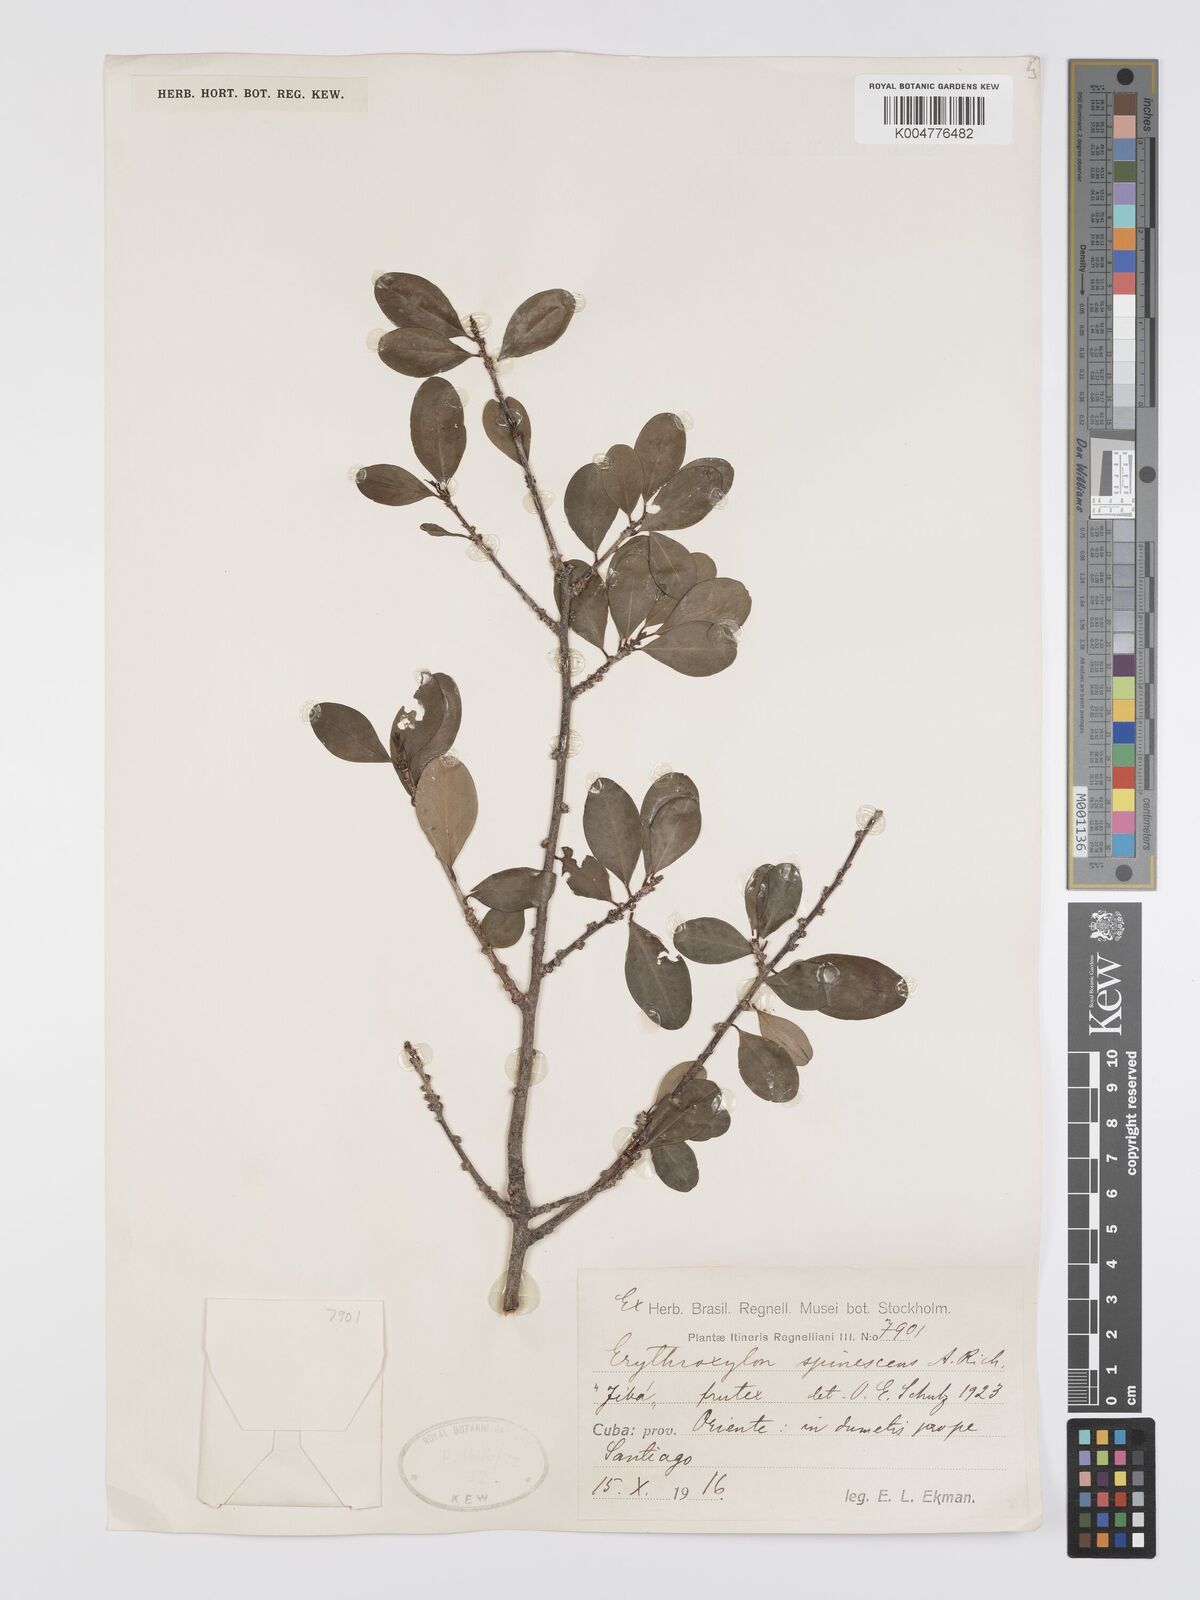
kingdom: Plantae
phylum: Tracheophyta
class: Magnoliopsida
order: Malpighiales
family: Erythroxylaceae
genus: Erythroxylum
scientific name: Erythroxylum rotundifolium
